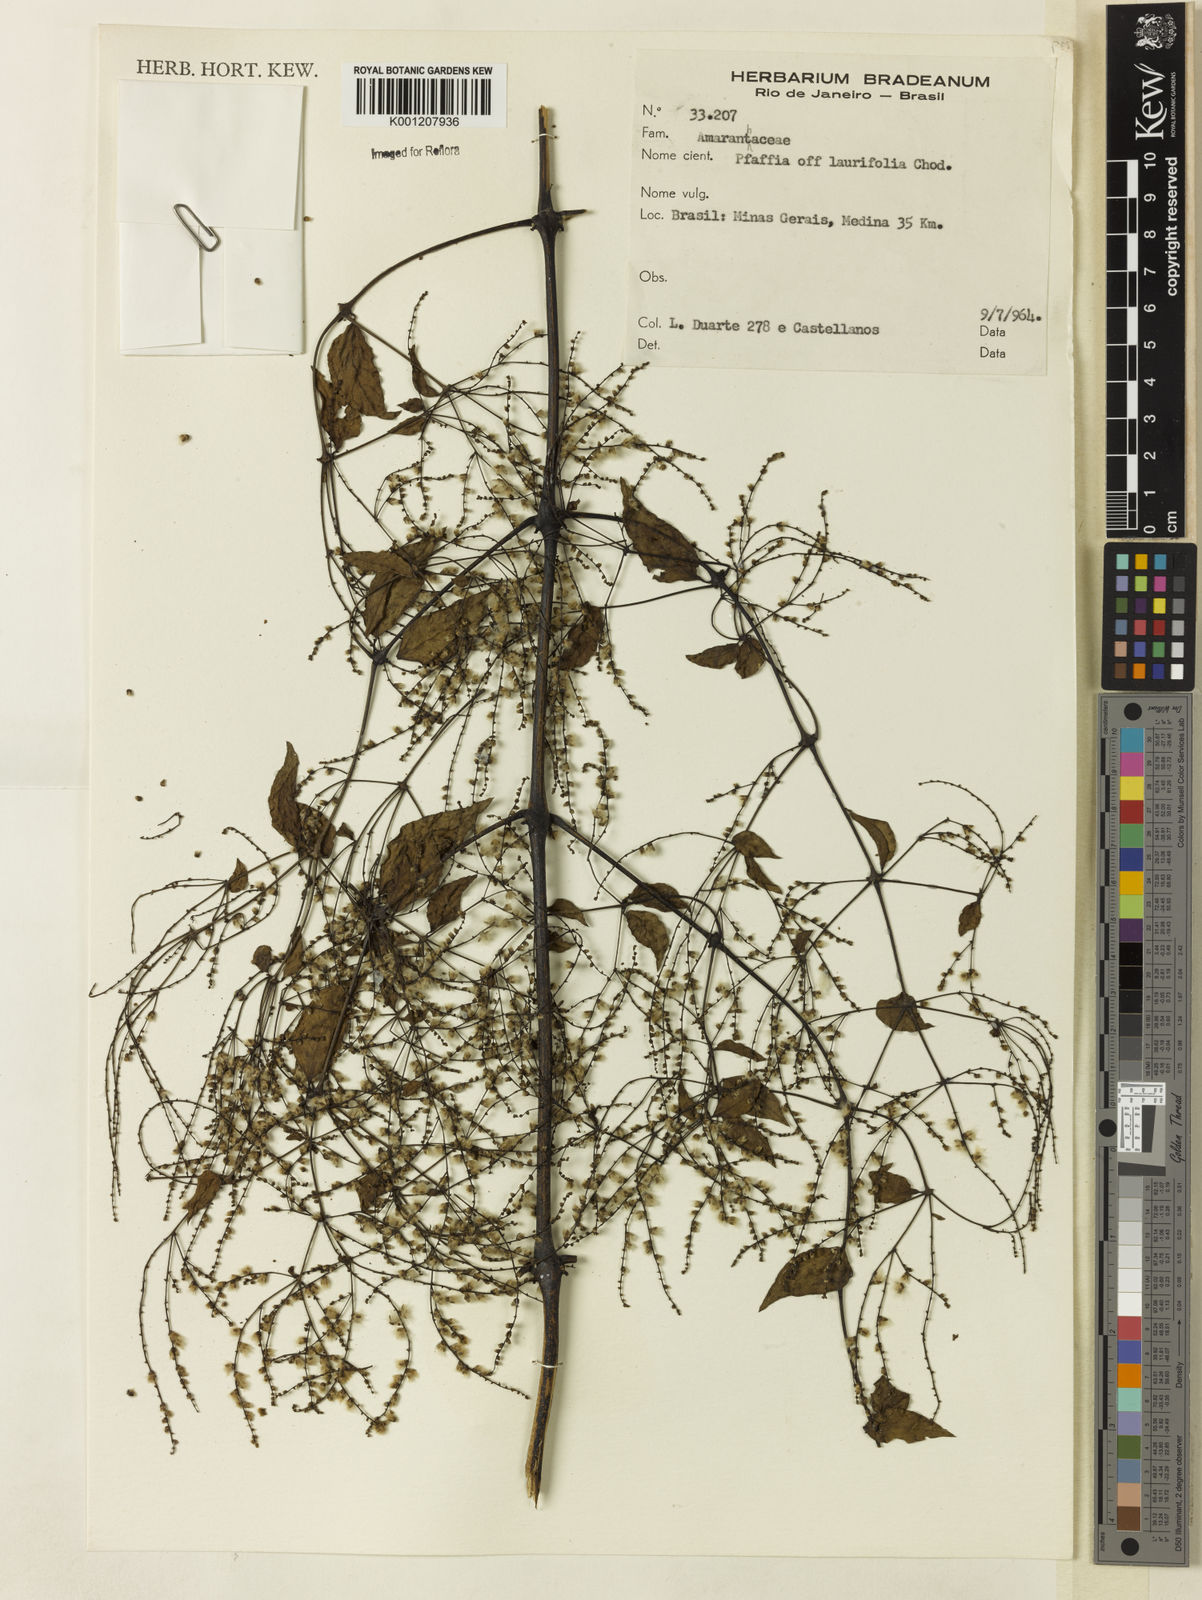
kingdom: Plantae
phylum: Tracheophyta
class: Magnoliopsida
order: Caryophyllales
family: Amaranthaceae
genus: Hebanthe
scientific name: Hebanthe erianthos
